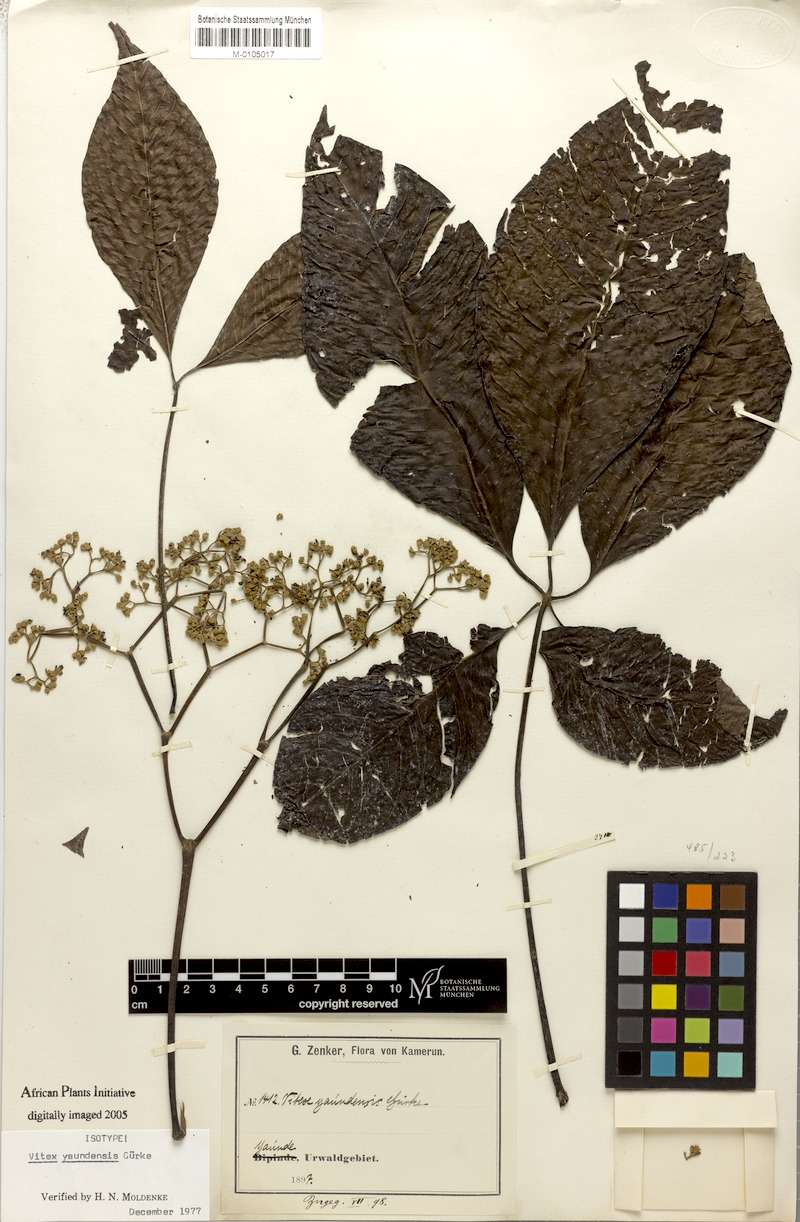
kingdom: Plantae
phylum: Tracheophyta
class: Magnoliopsida
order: Lamiales
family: Lamiaceae
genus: Vitex
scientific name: Vitex yaundensis
